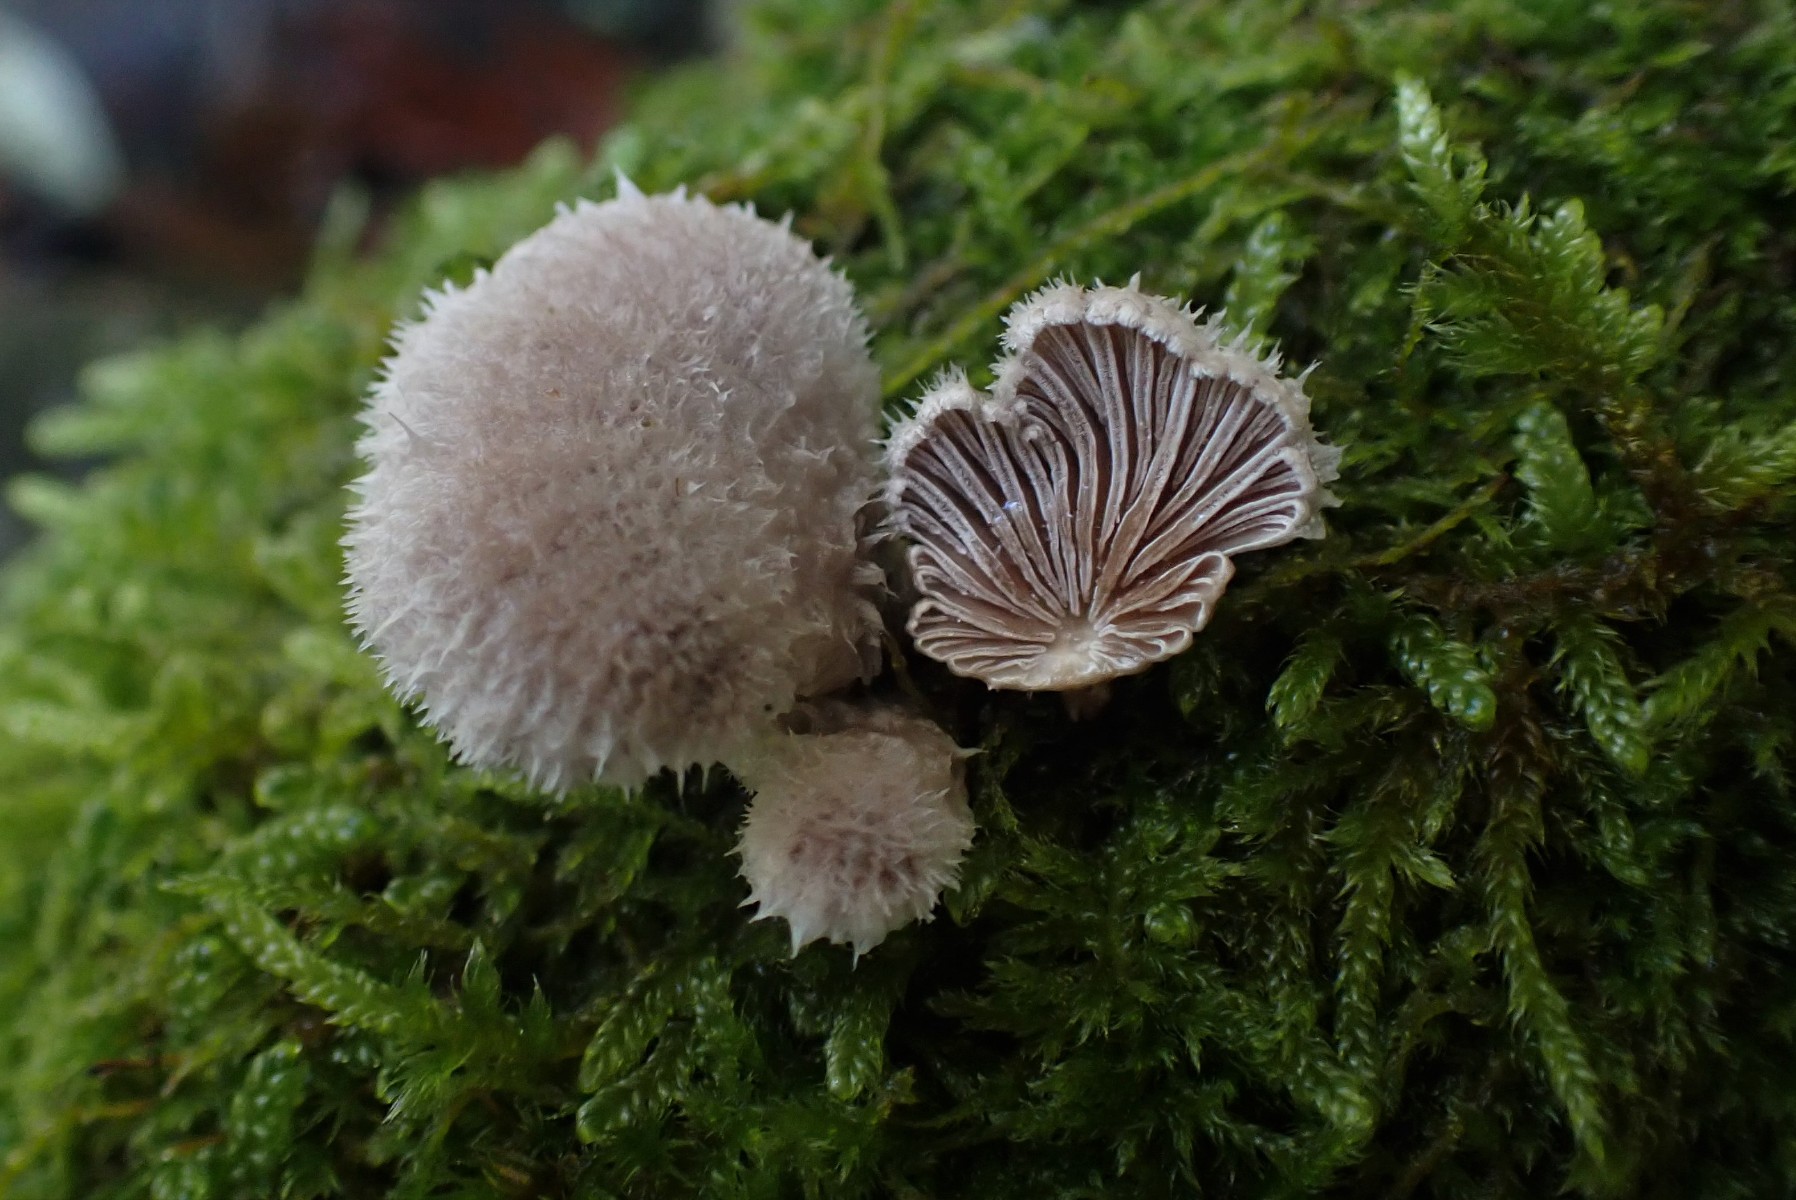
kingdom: Fungi
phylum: Basidiomycota
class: Agaricomycetes
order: Agaricales
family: Schizophyllaceae
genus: Schizophyllum
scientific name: Schizophyllum commune
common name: kløvblad
